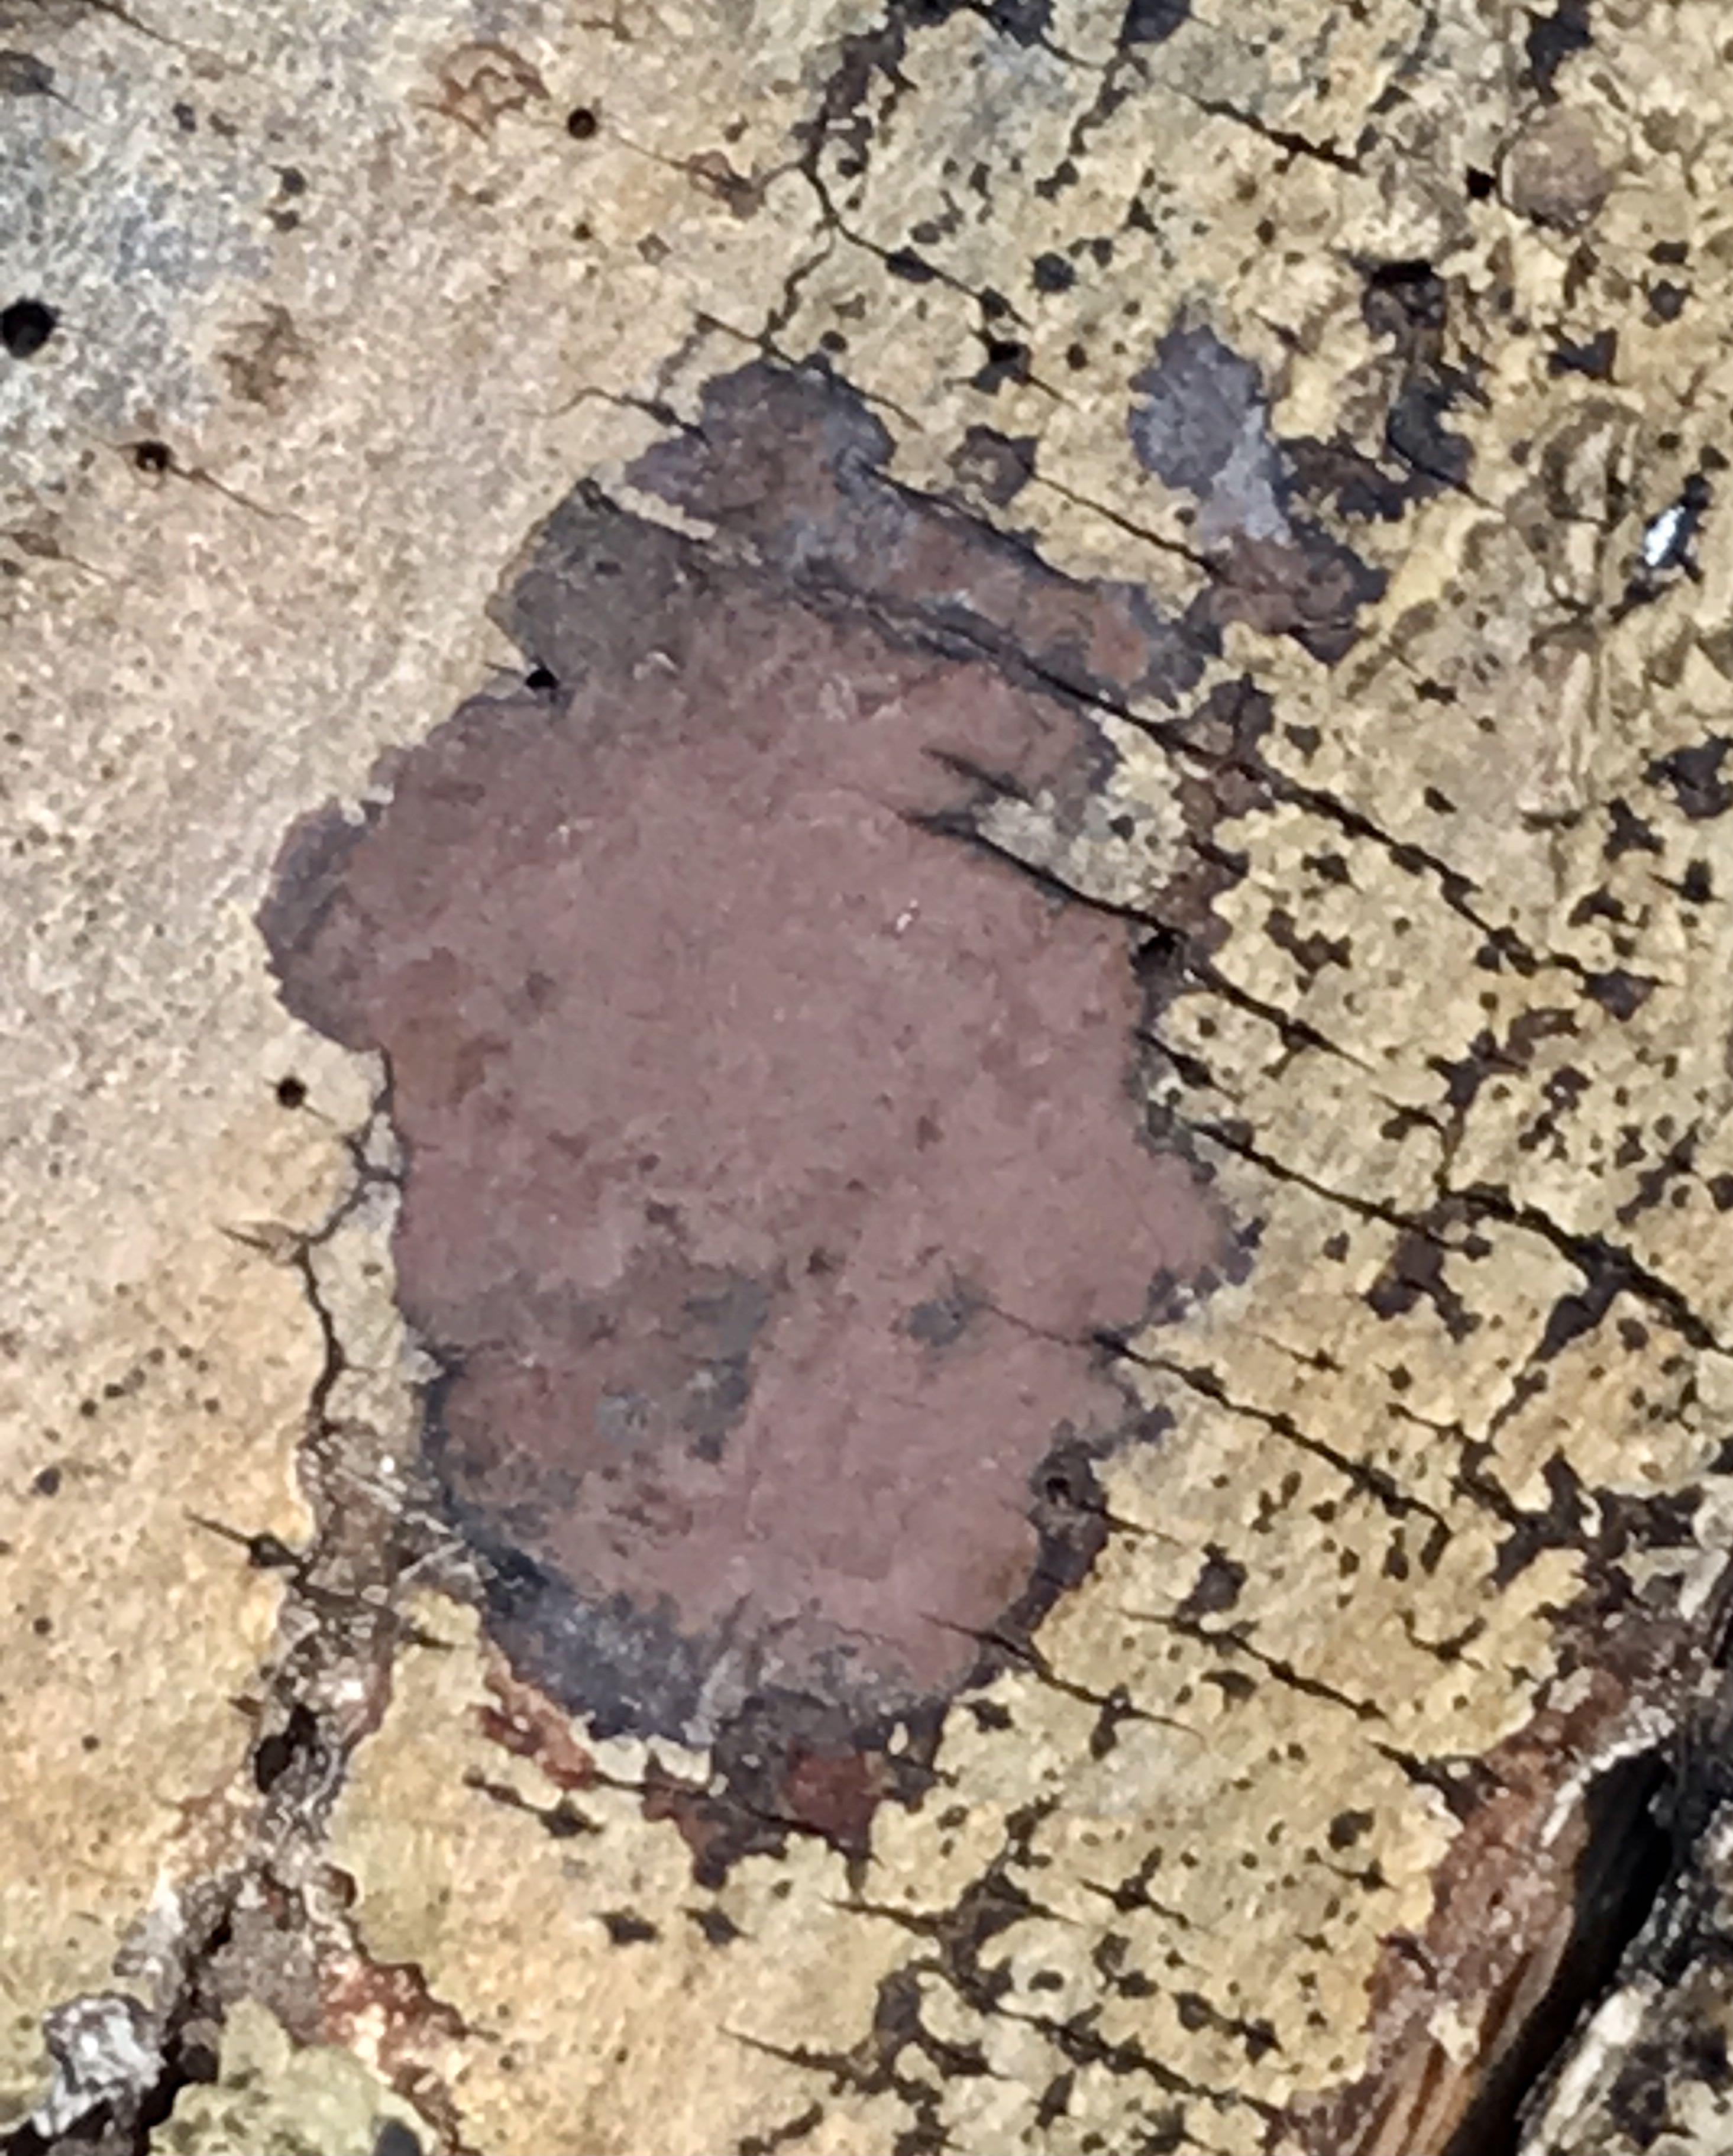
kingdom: Fungi
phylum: Ascomycota
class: Sordariomycetes
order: Xylariales
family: Hypoxylaceae
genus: Hypoxylon
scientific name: Hypoxylon petriniae
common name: nedsænket kulbær
